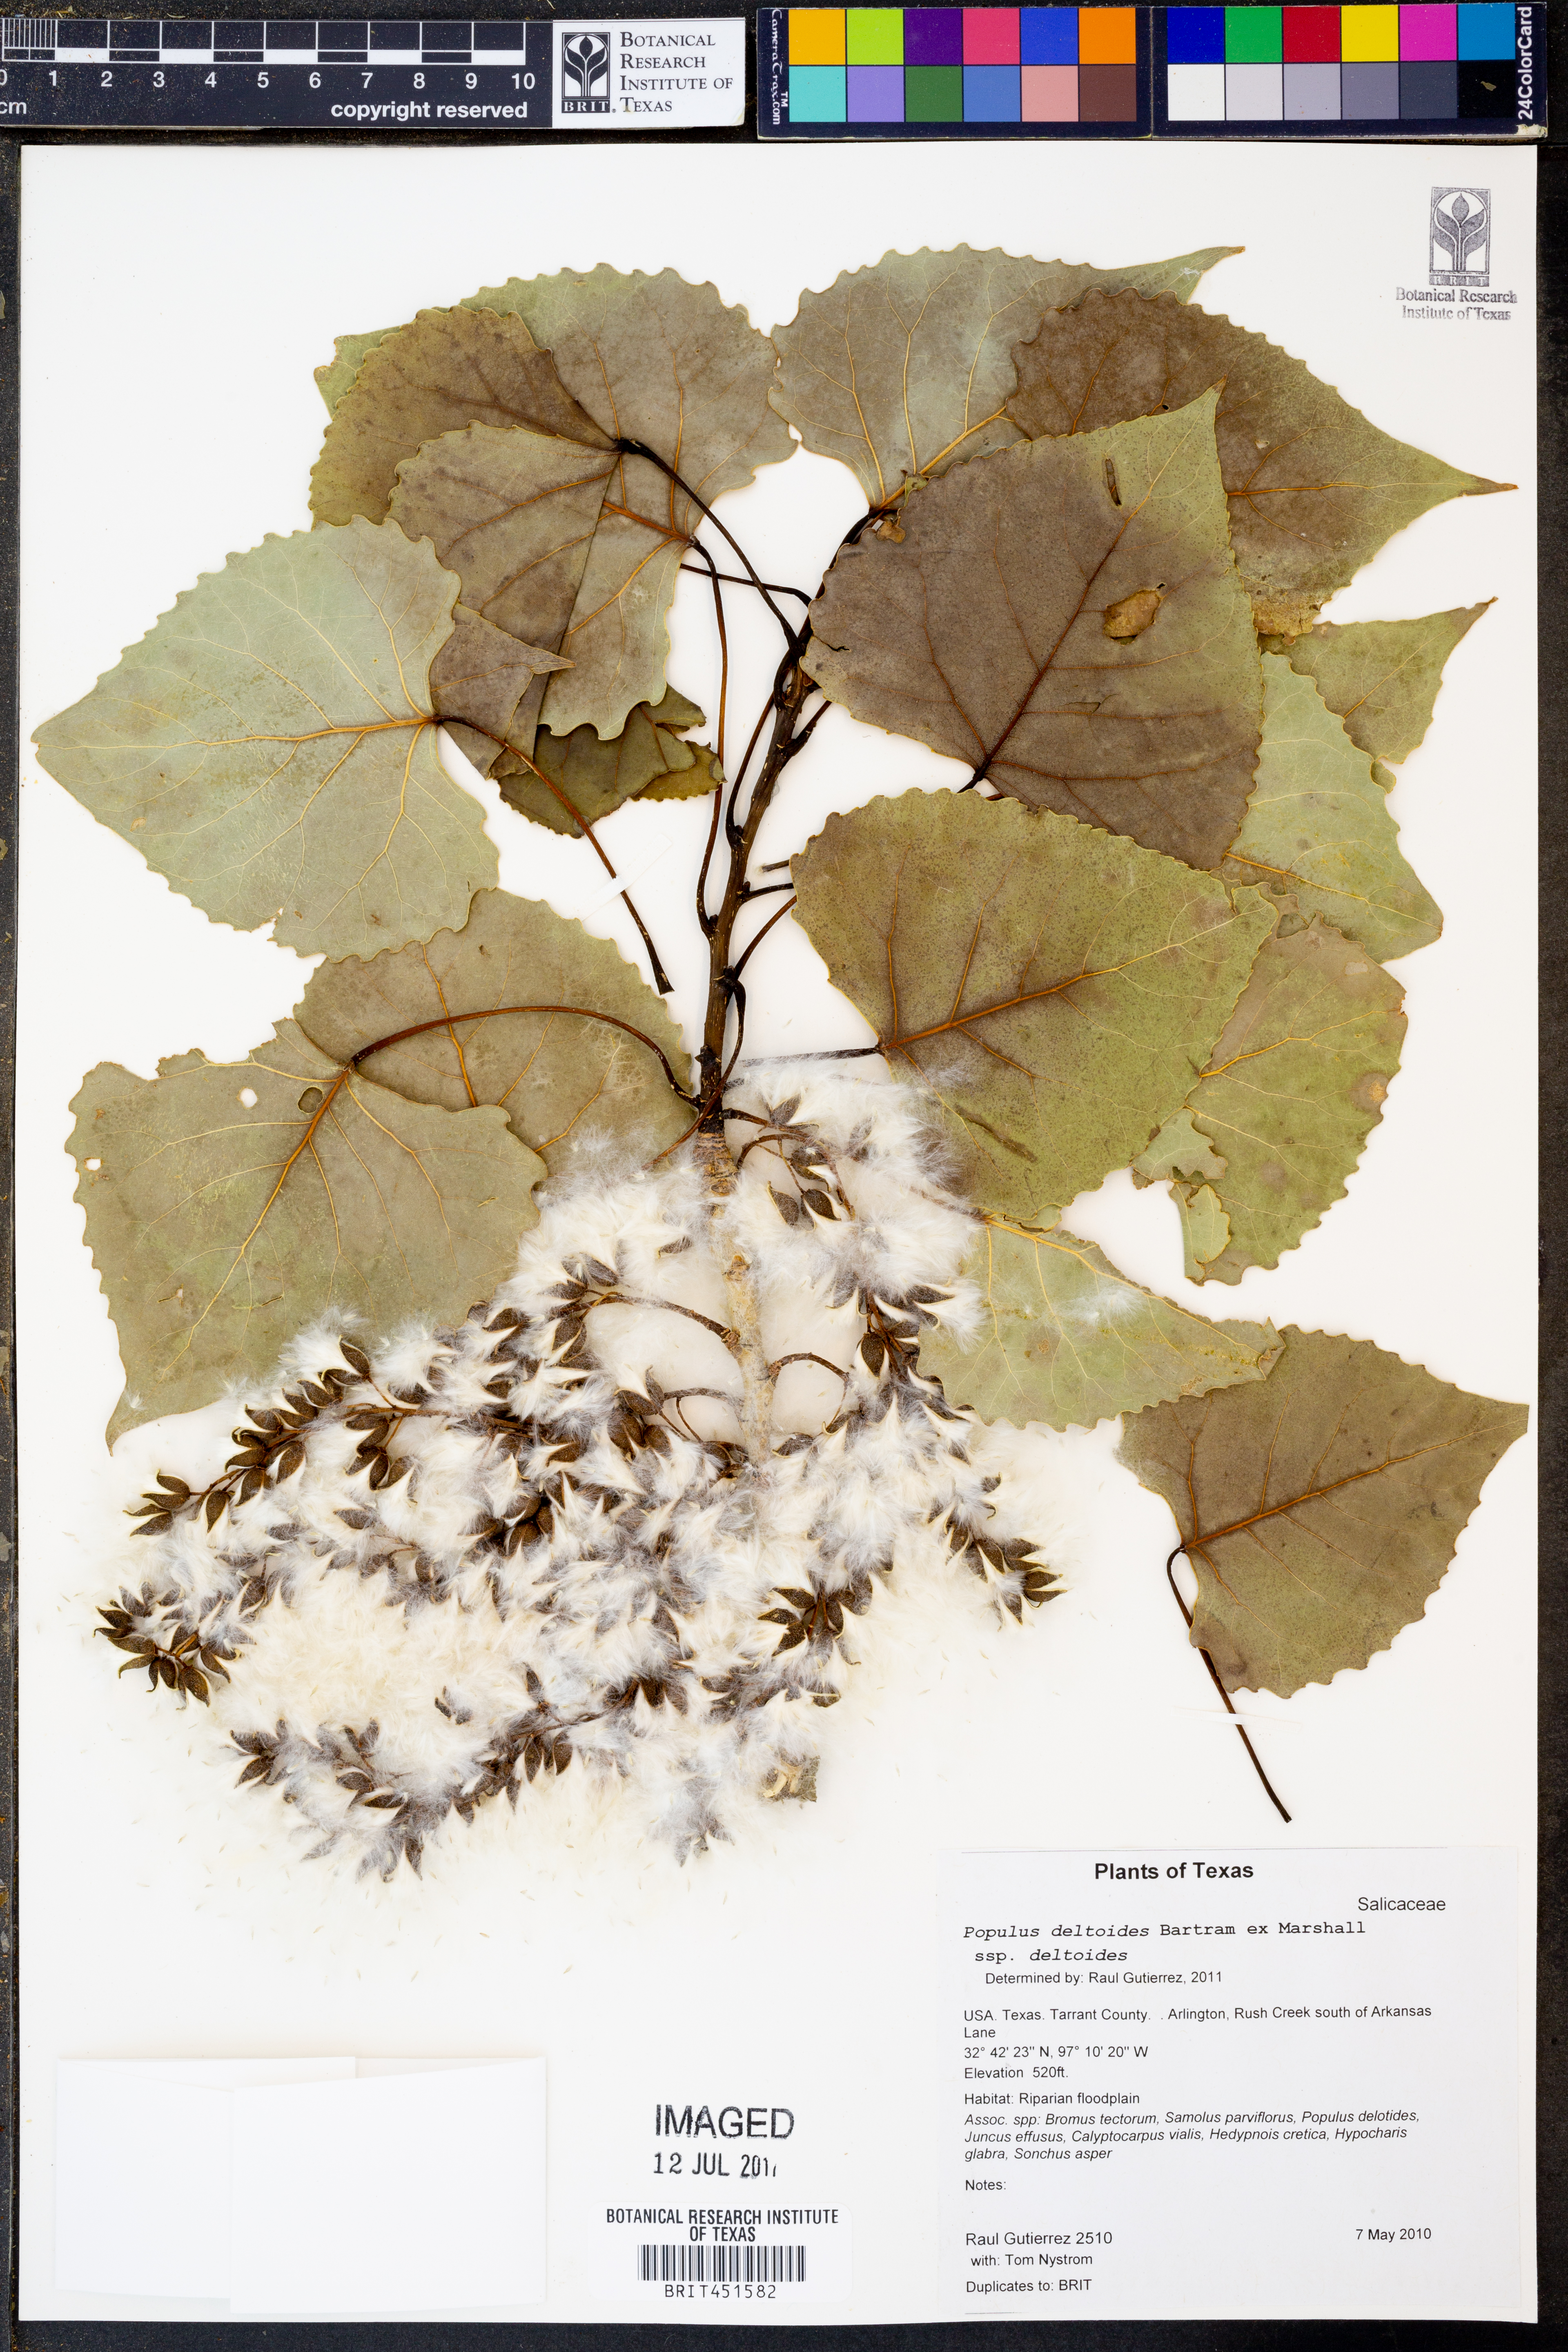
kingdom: Plantae
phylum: Tracheophyta
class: Magnoliopsida
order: Malpighiales
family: Salicaceae
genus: Populus
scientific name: Populus deltoides
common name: Eastern cottonwood
